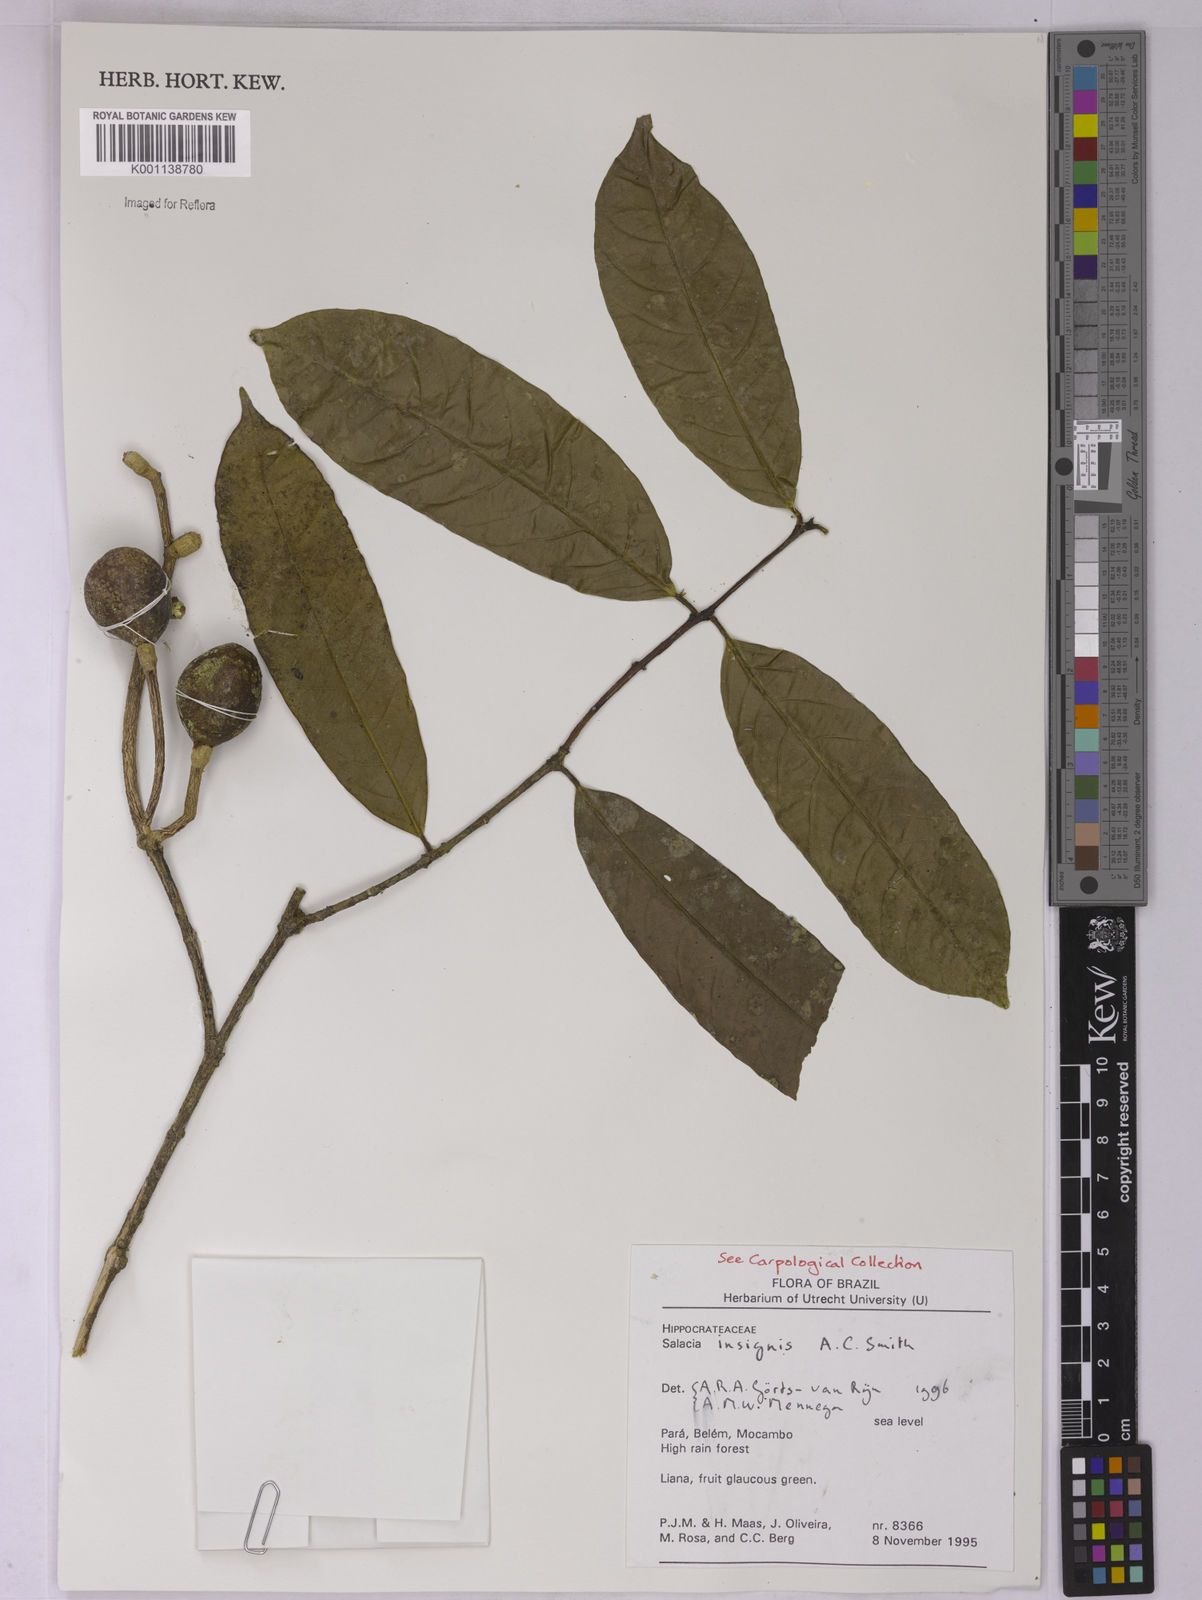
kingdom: Plantae
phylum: Tracheophyta
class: Magnoliopsida
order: Celastrales
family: Celastraceae
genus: Salacia
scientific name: Salacia insignis
